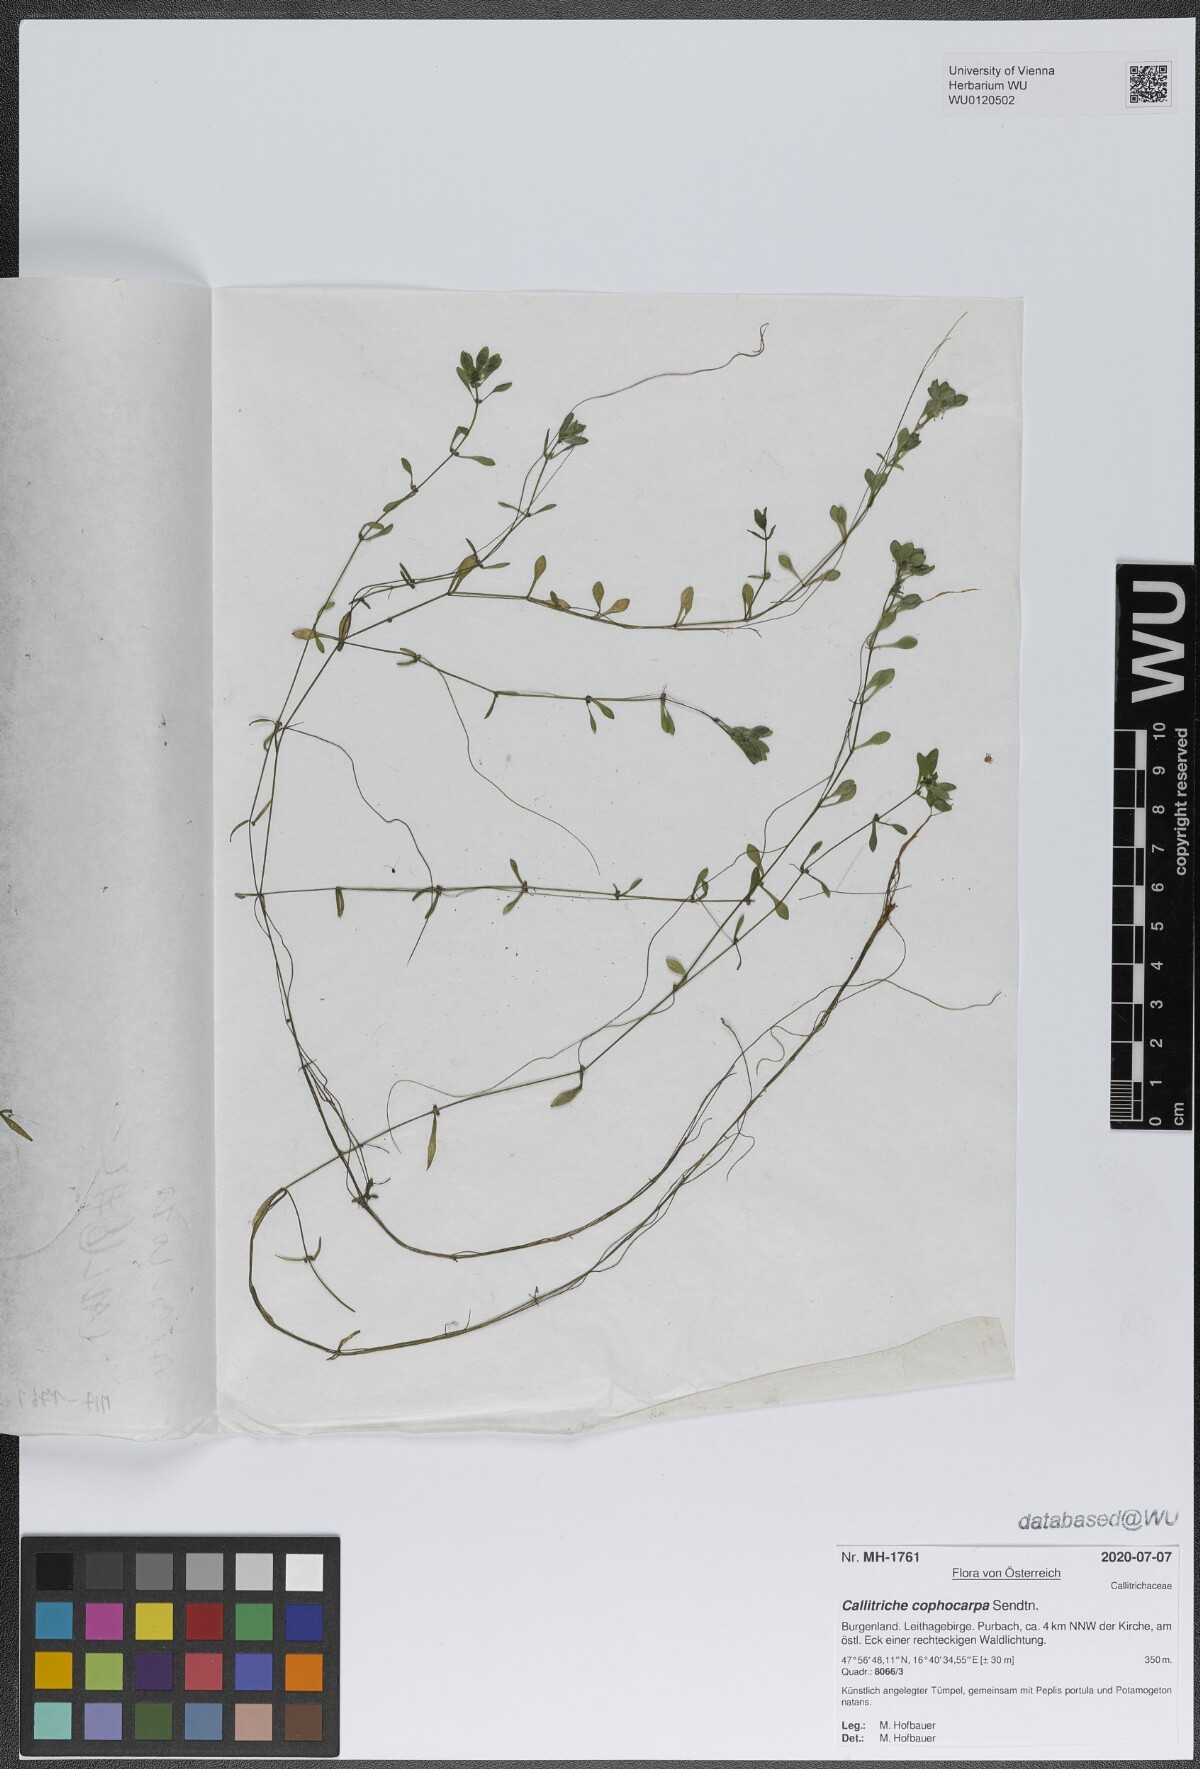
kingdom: Plantae
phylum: Tracheophyta
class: Magnoliopsida
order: Lamiales
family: Plantaginaceae
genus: Callitriche
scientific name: Callitriche cophocarpa
